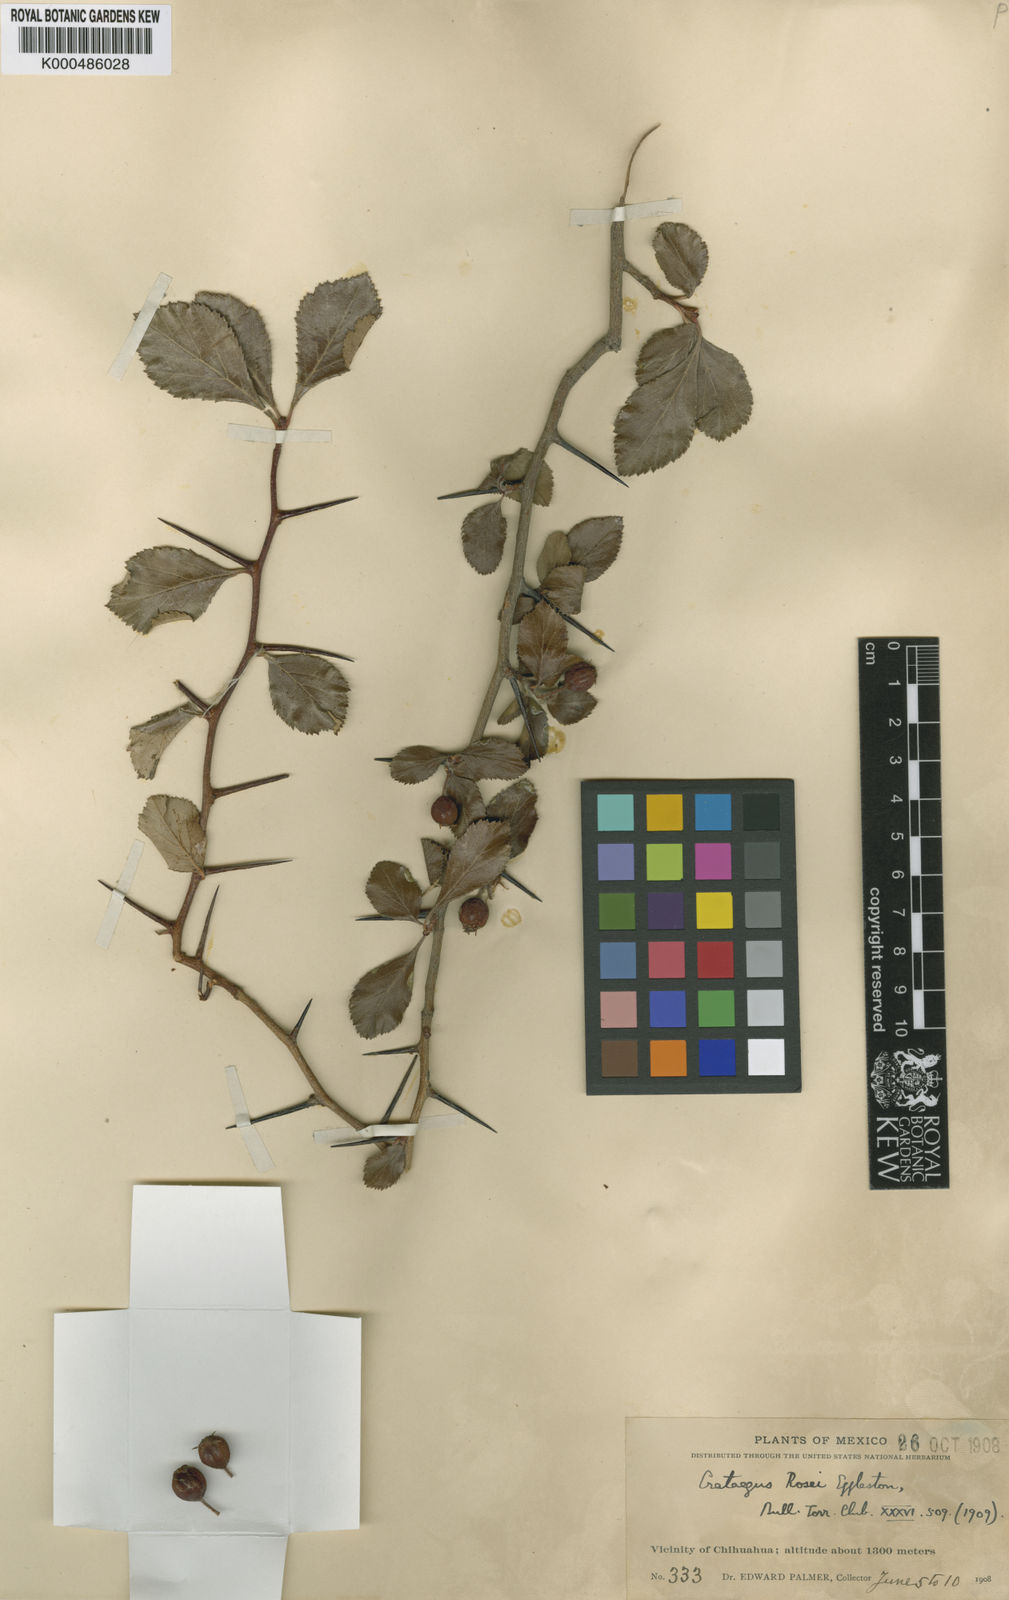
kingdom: Plantae
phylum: Tracheophyta
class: Magnoliopsida
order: Rosales
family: Rosaceae
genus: Crataegus
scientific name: Crataegus rosei
